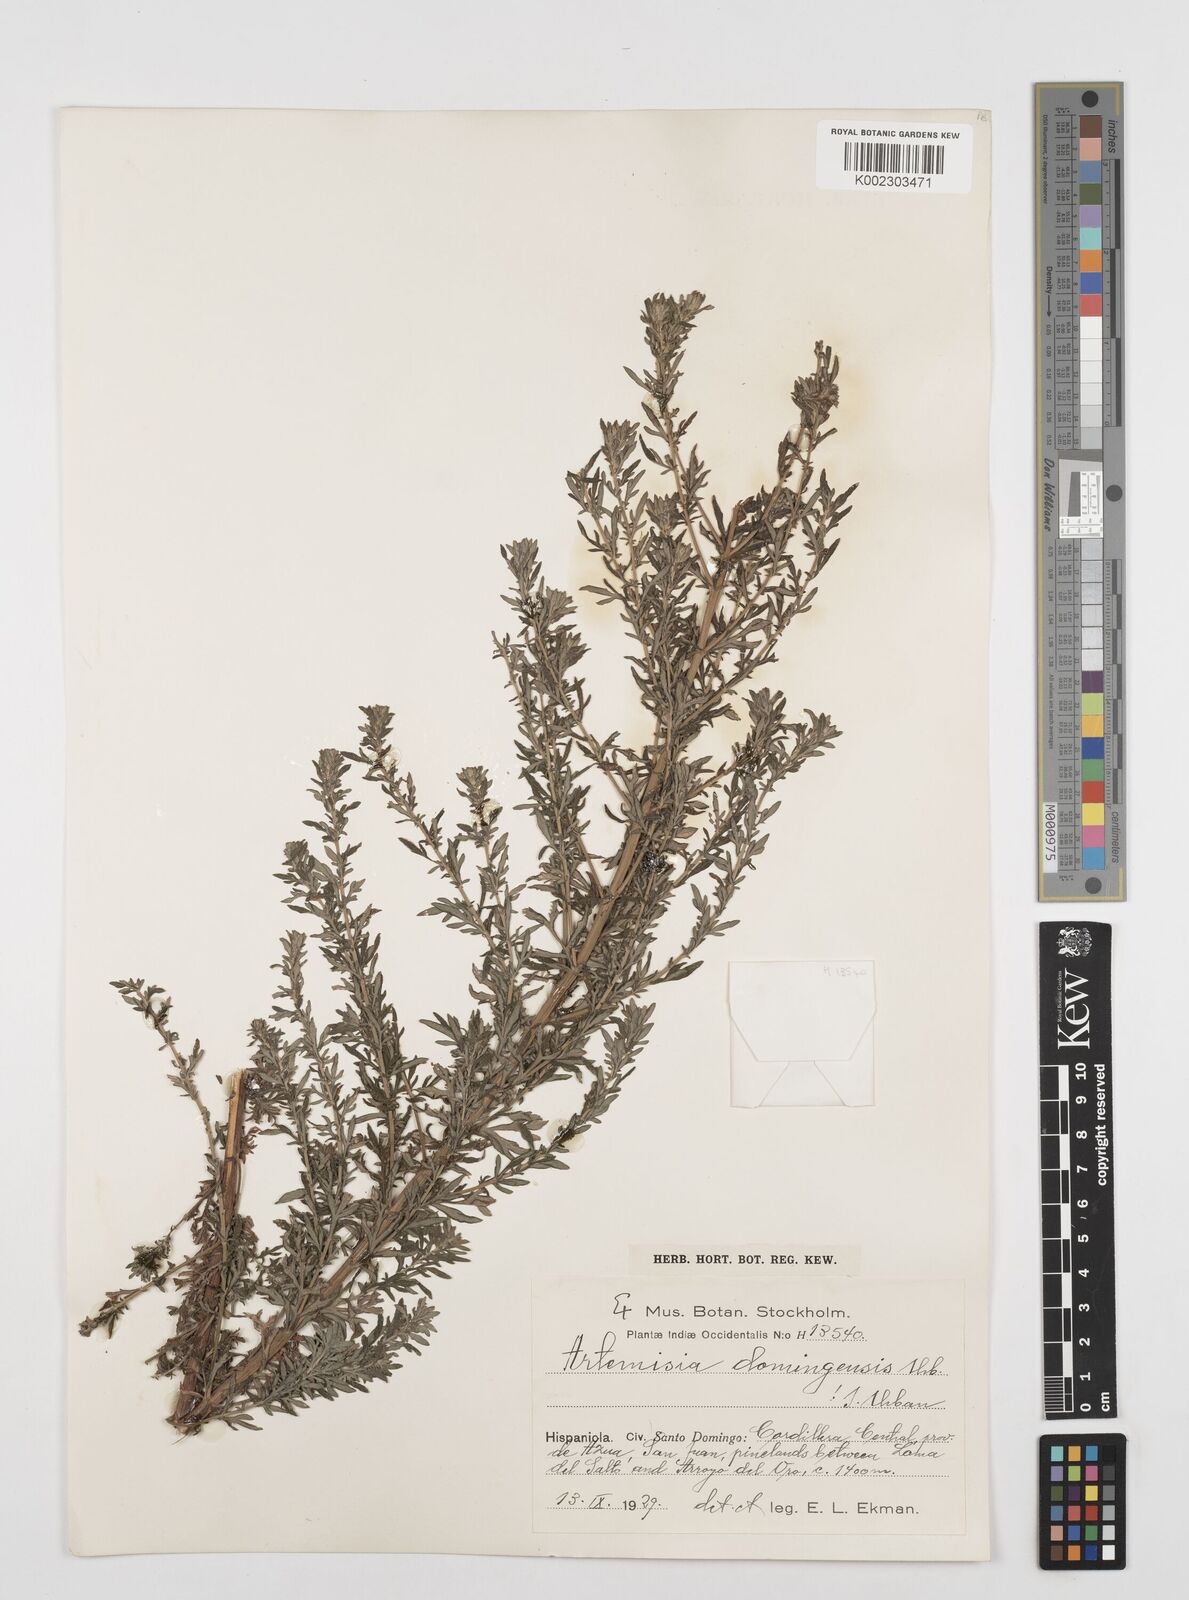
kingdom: Plantae
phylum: Tracheophyta
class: Magnoliopsida
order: Asterales
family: Asteraceae
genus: Artemisia
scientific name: Artemisia domingensis
